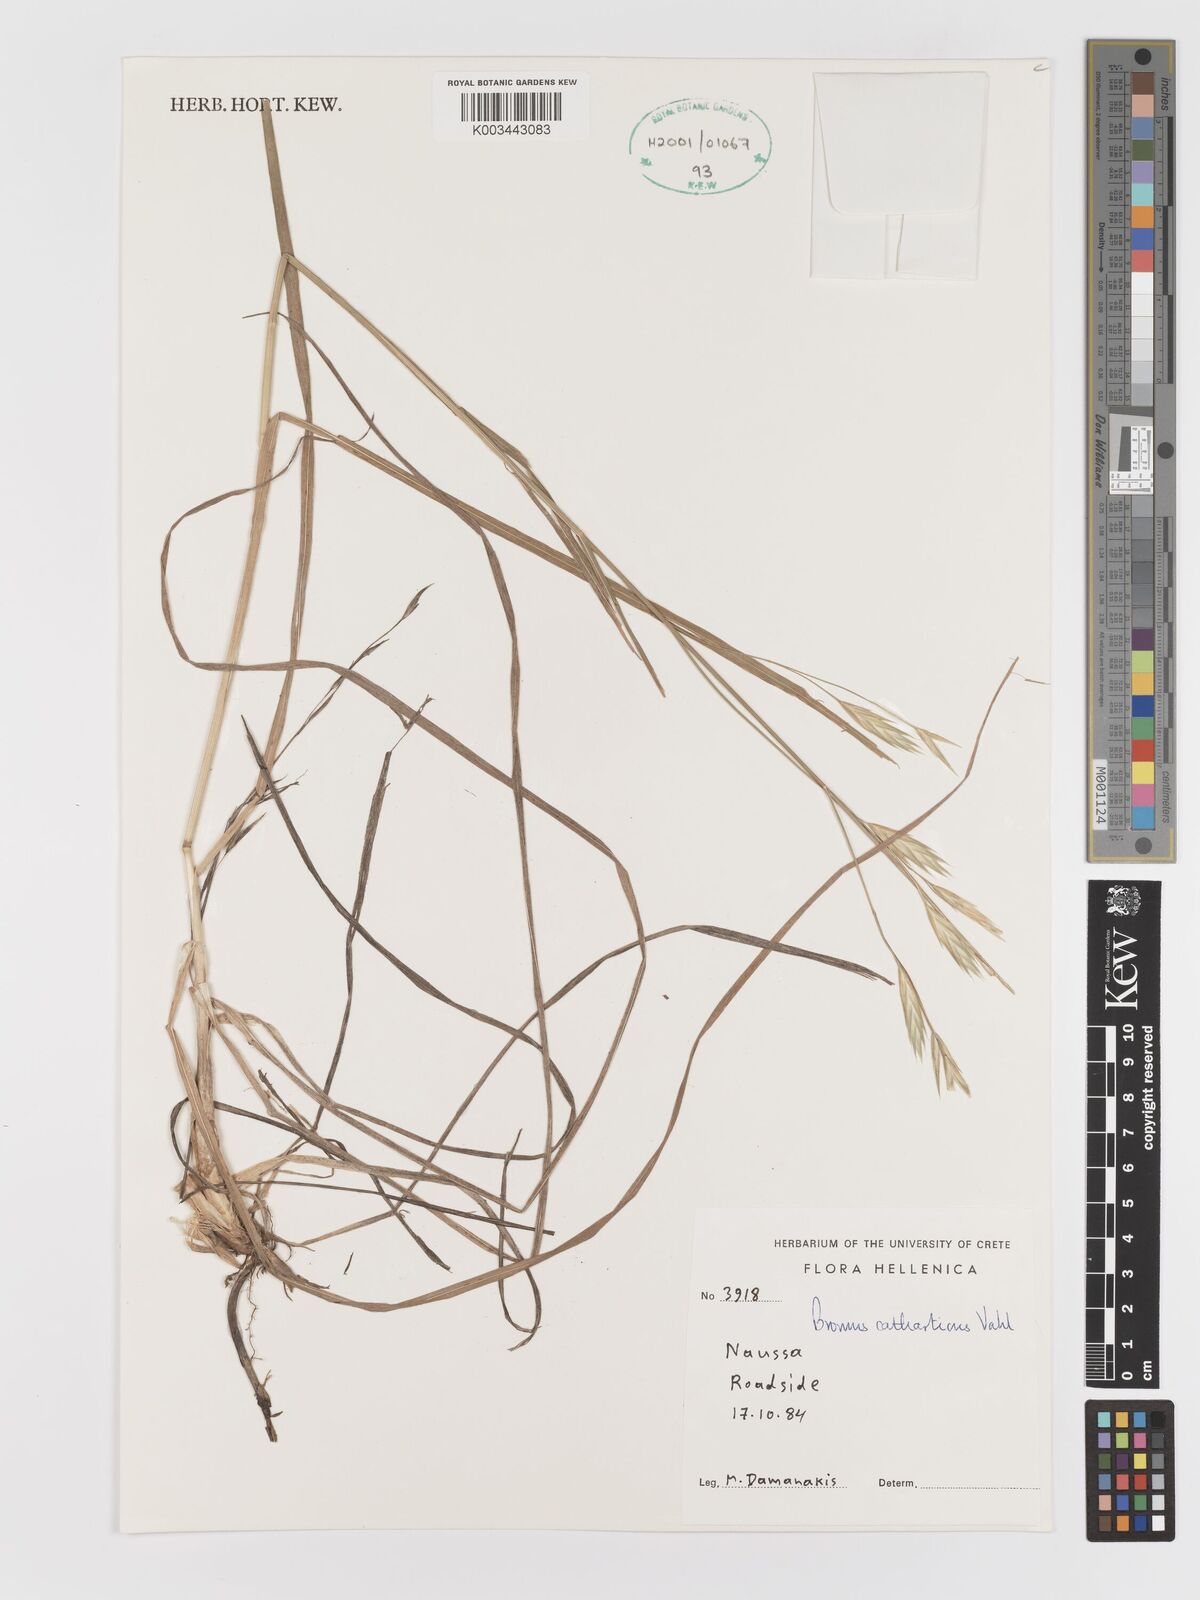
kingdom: Plantae
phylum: Tracheophyta
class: Liliopsida
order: Poales
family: Poaceae
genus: Bromus
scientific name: Bromus catharticus
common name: Rescuegrass
